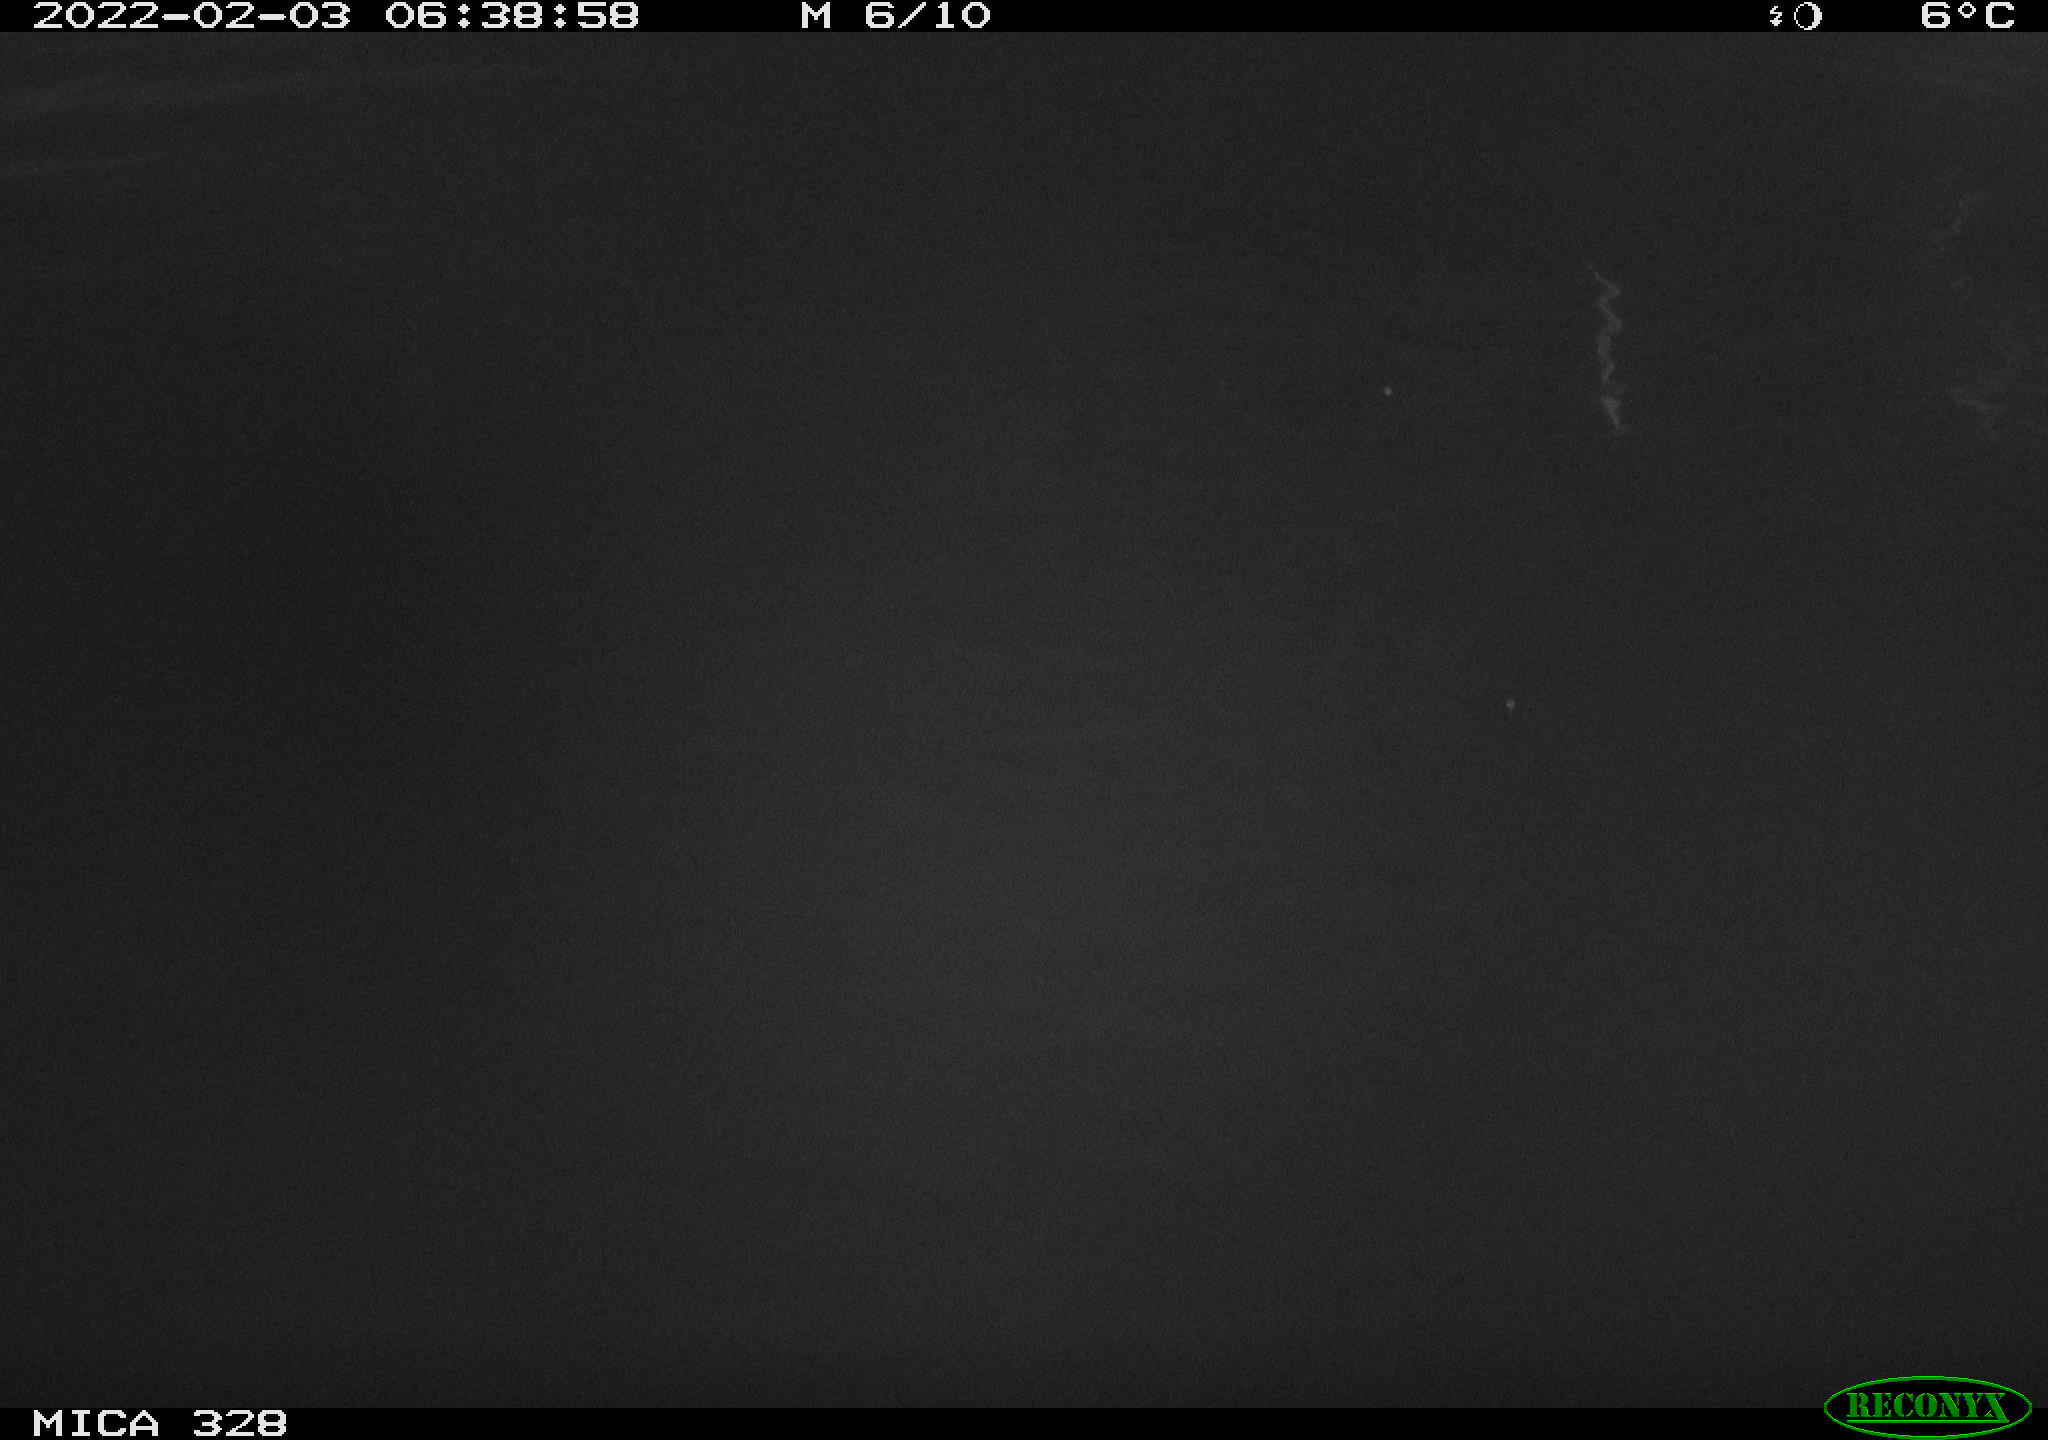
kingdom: Animalia
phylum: Chordata
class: Mammalia
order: Rodentia
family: Cricetidae
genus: Ondatra
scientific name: Ondatra zibethicus
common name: Muskrat
